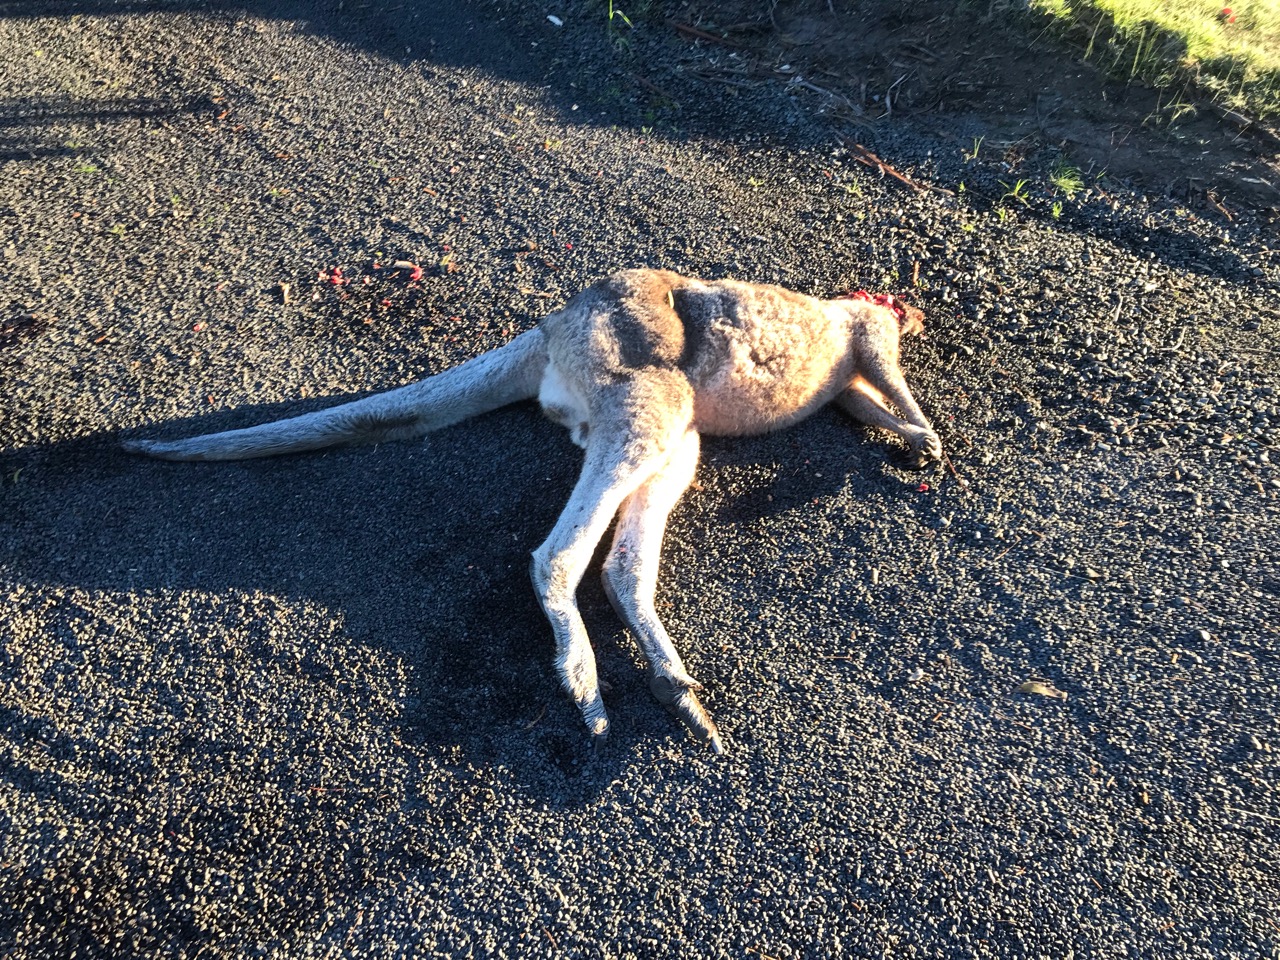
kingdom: Animalia
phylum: Chordata
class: Mammalia
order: Diprotodontia
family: Macropodidae
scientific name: Macropodidae
